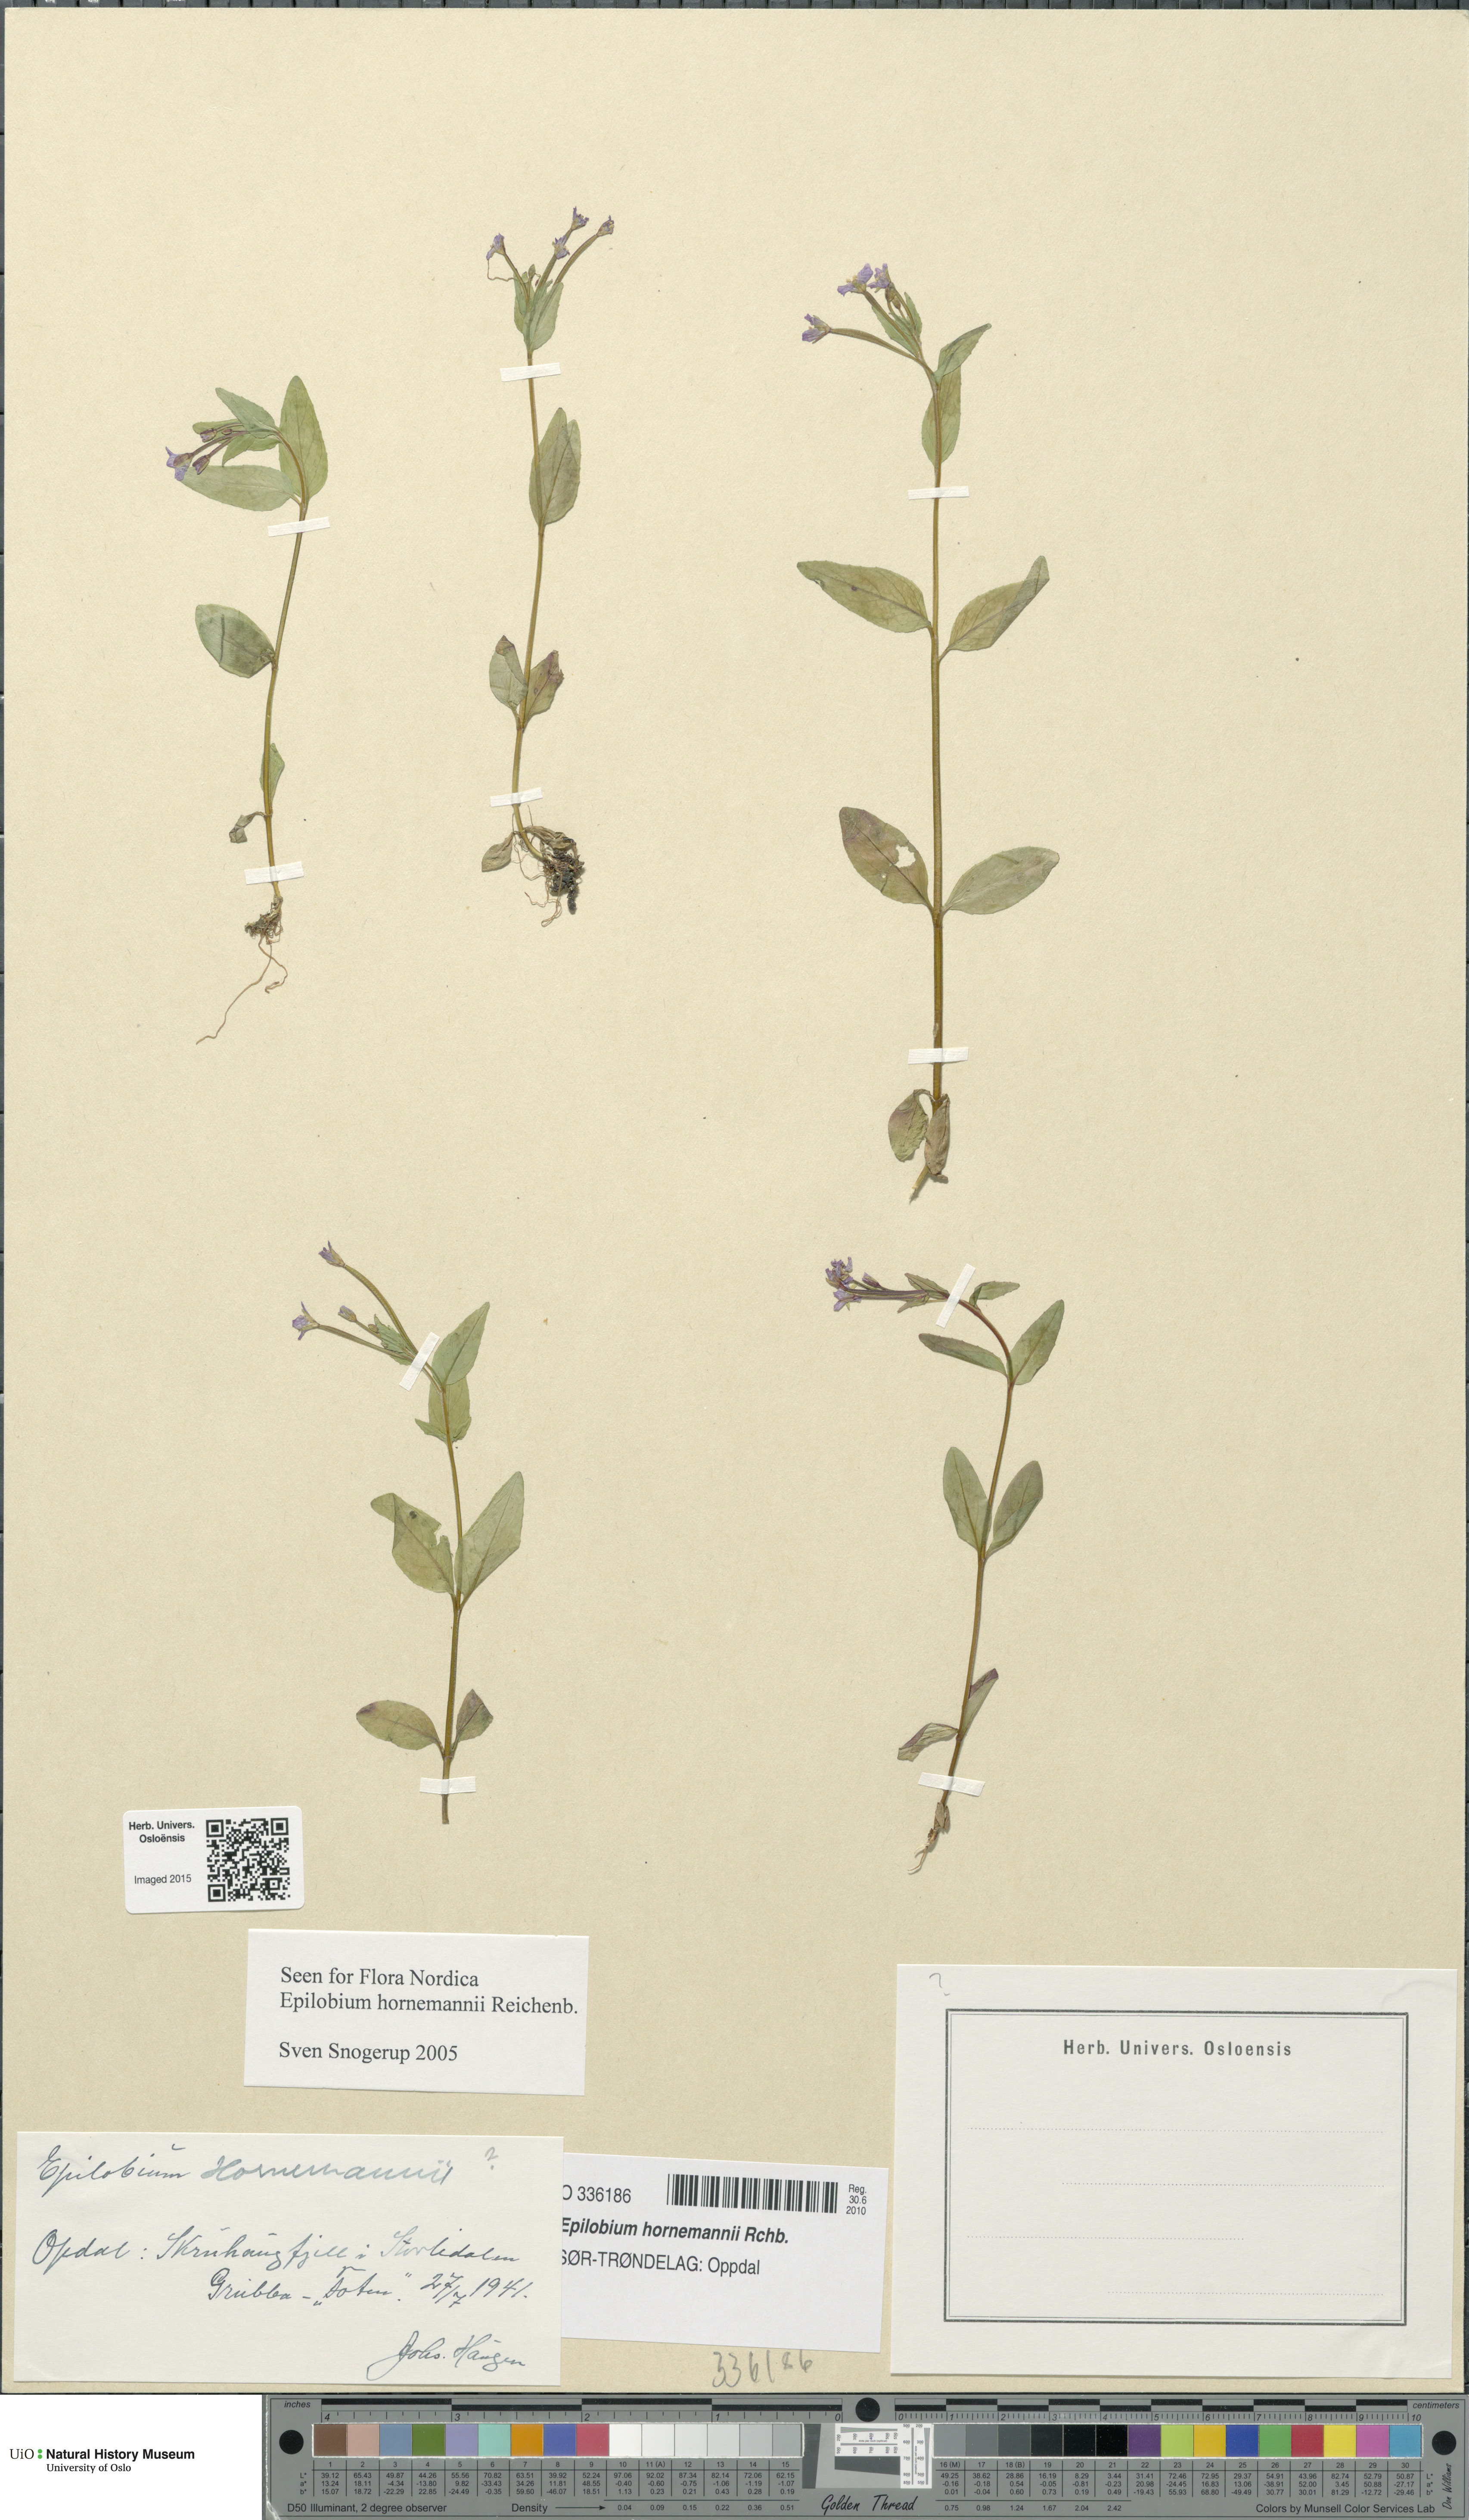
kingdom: Plantae
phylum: Tracheophyta
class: Magnoliopsida
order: Myrtales
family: Onagraceae
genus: Epilobium
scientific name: Epilobium hornemannii
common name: Hornemann's willowherb
